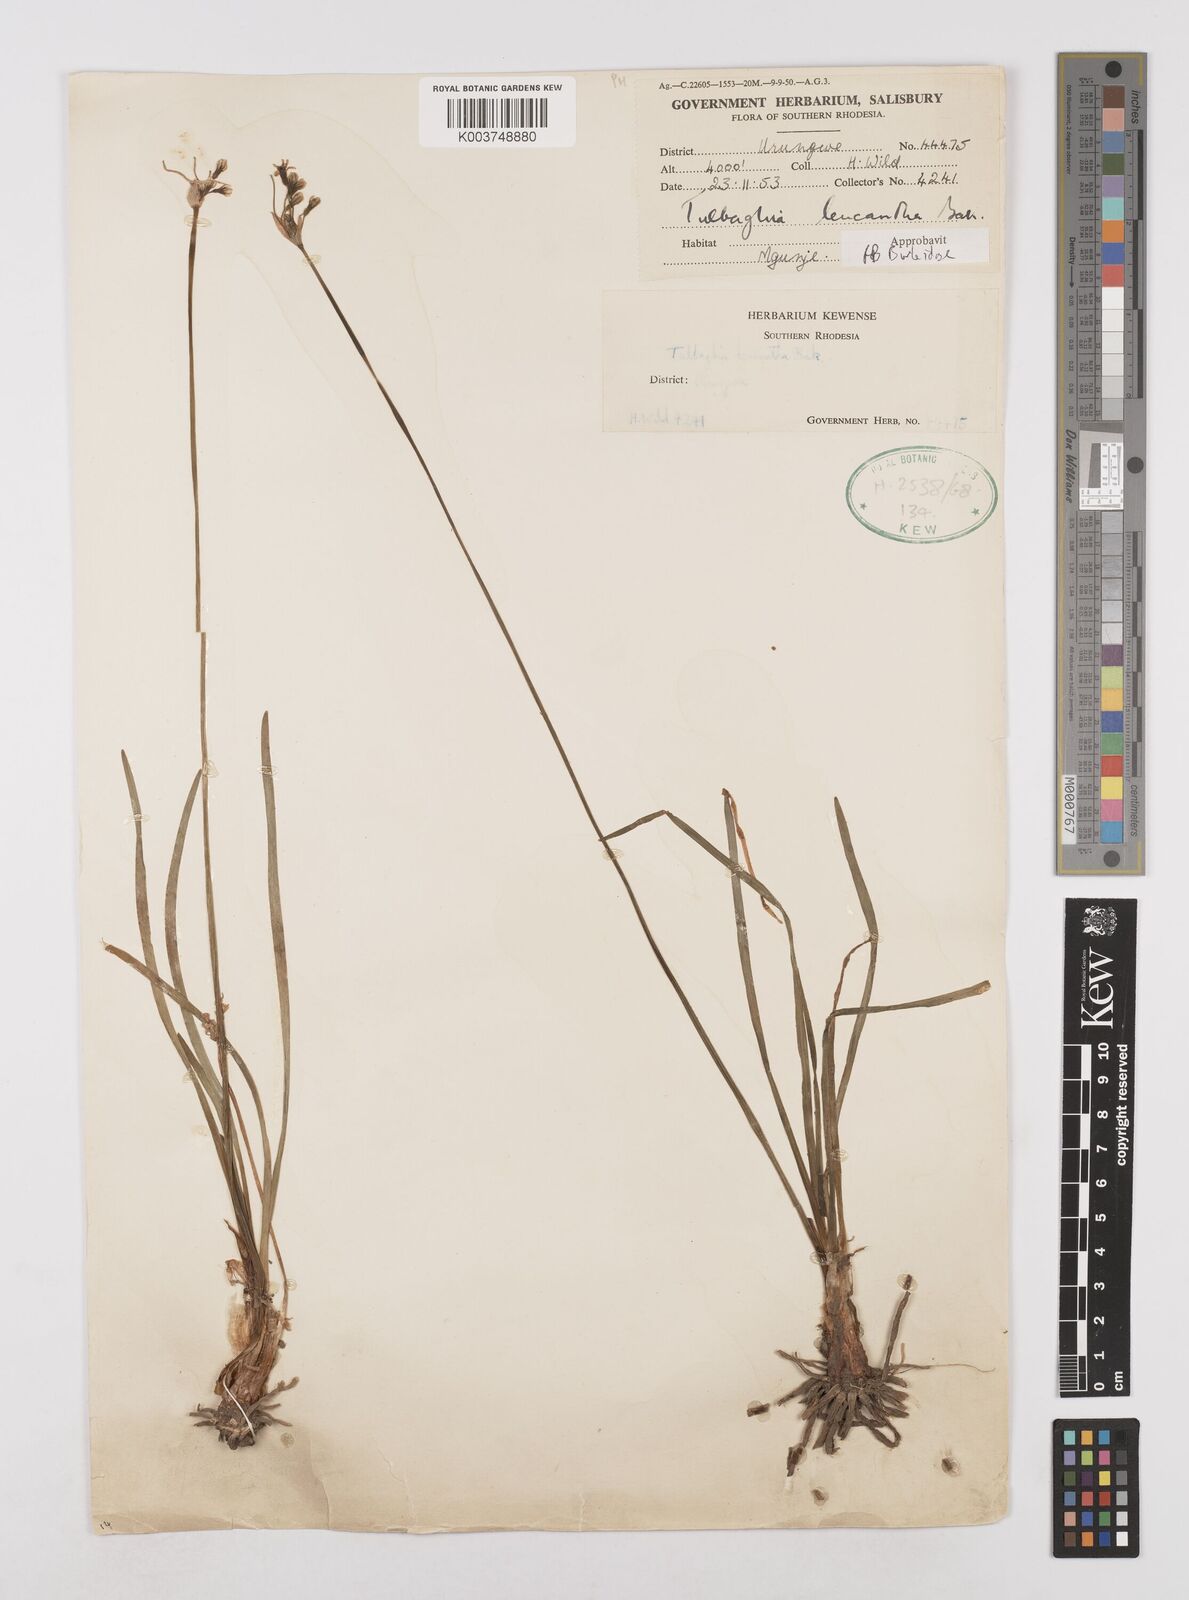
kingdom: Plantae
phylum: Tracheophyta
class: Liliopsida
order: Asparagales
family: Amaryllidaceae
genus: Tulbaghia
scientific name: Tulbaghia leucantha
